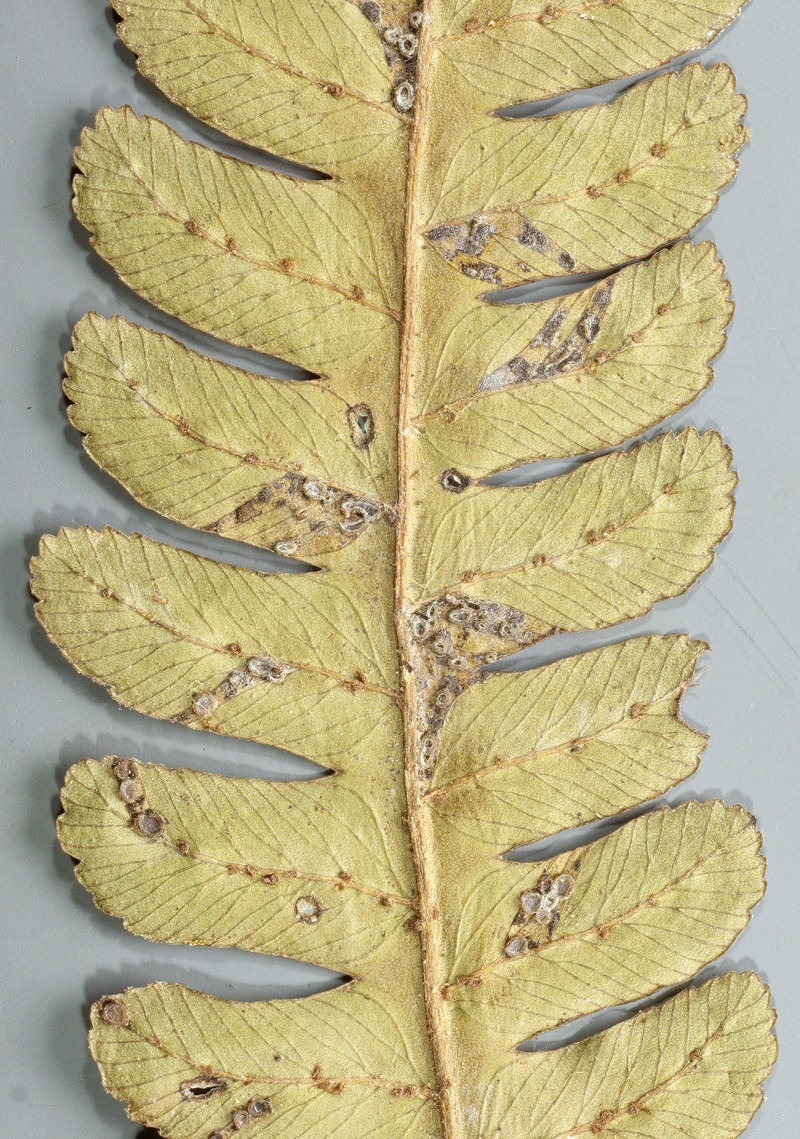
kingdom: Fungi
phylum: Ascomycota
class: Leotiomycetes
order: Helotiales
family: Helotiaceae
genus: Bioscypha
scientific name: Bioscypha cyatheae
